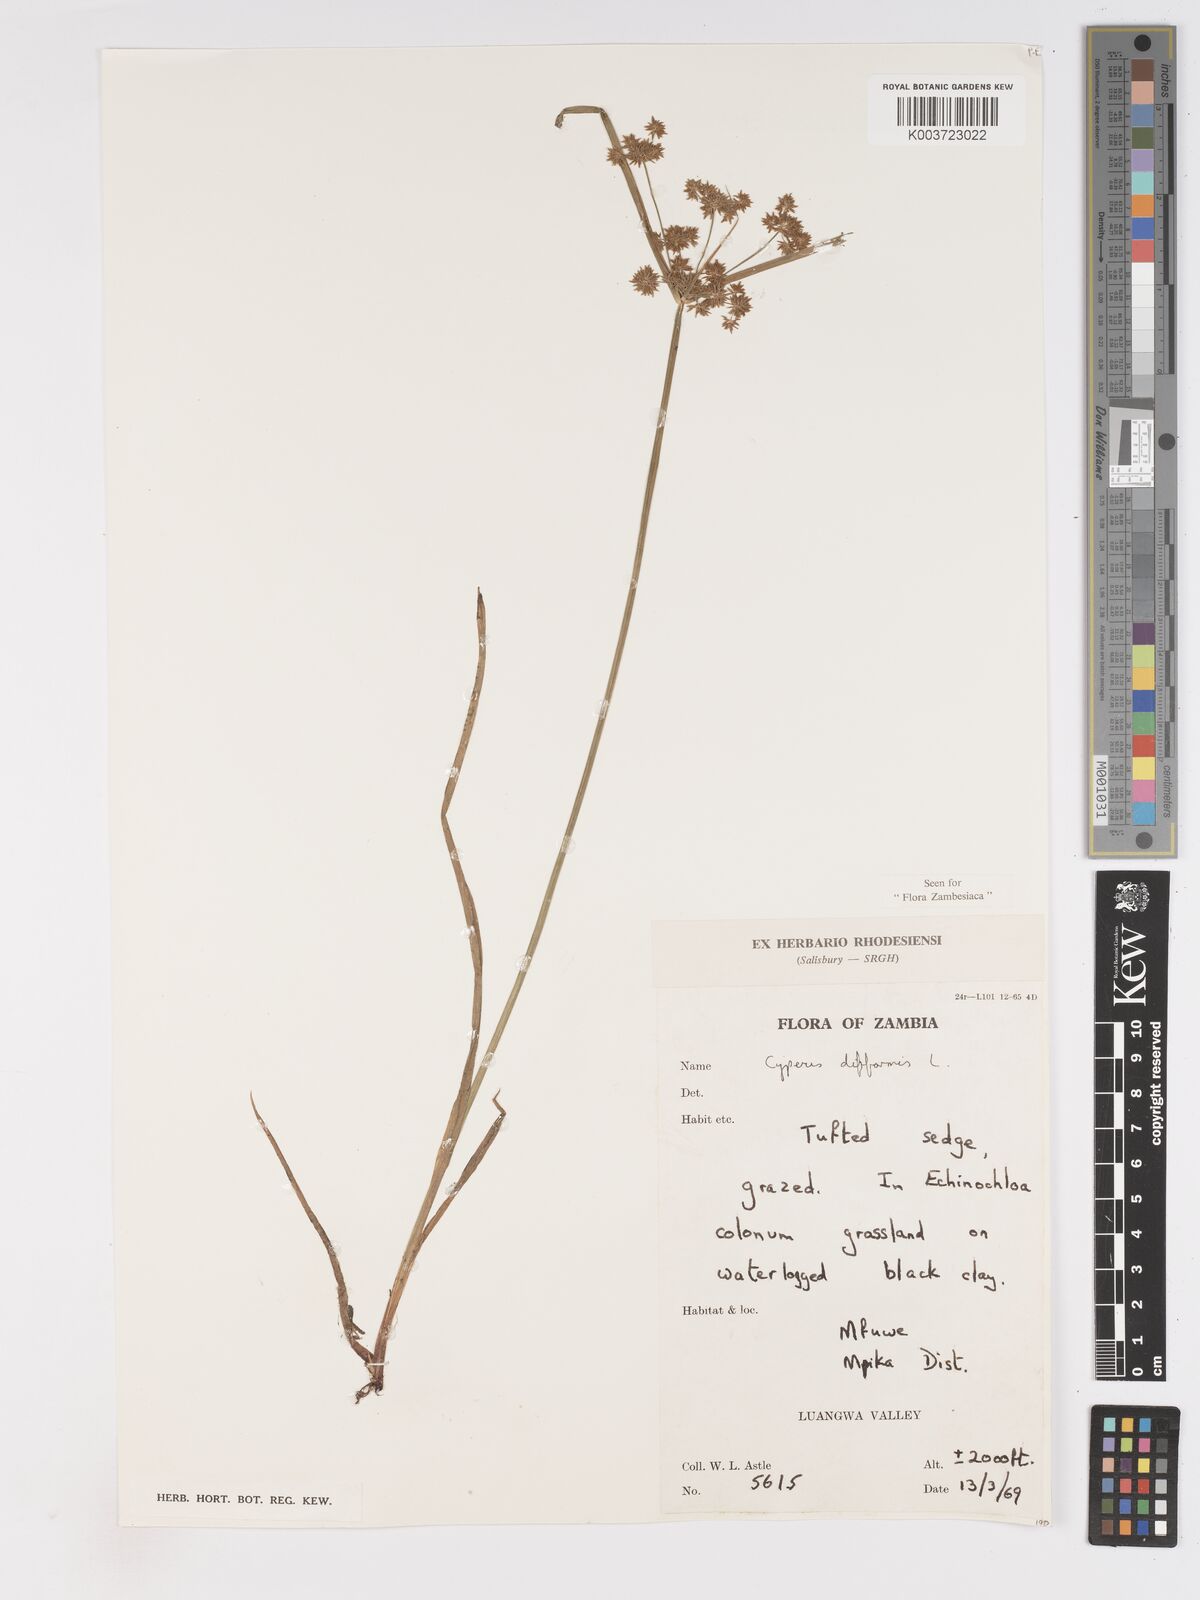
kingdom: Plantae
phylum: Tracheophyta
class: Liliopsida
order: Poales
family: Cyperaceae
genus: Cyperus
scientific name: Cyperus difformis
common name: Variable flatsedge
